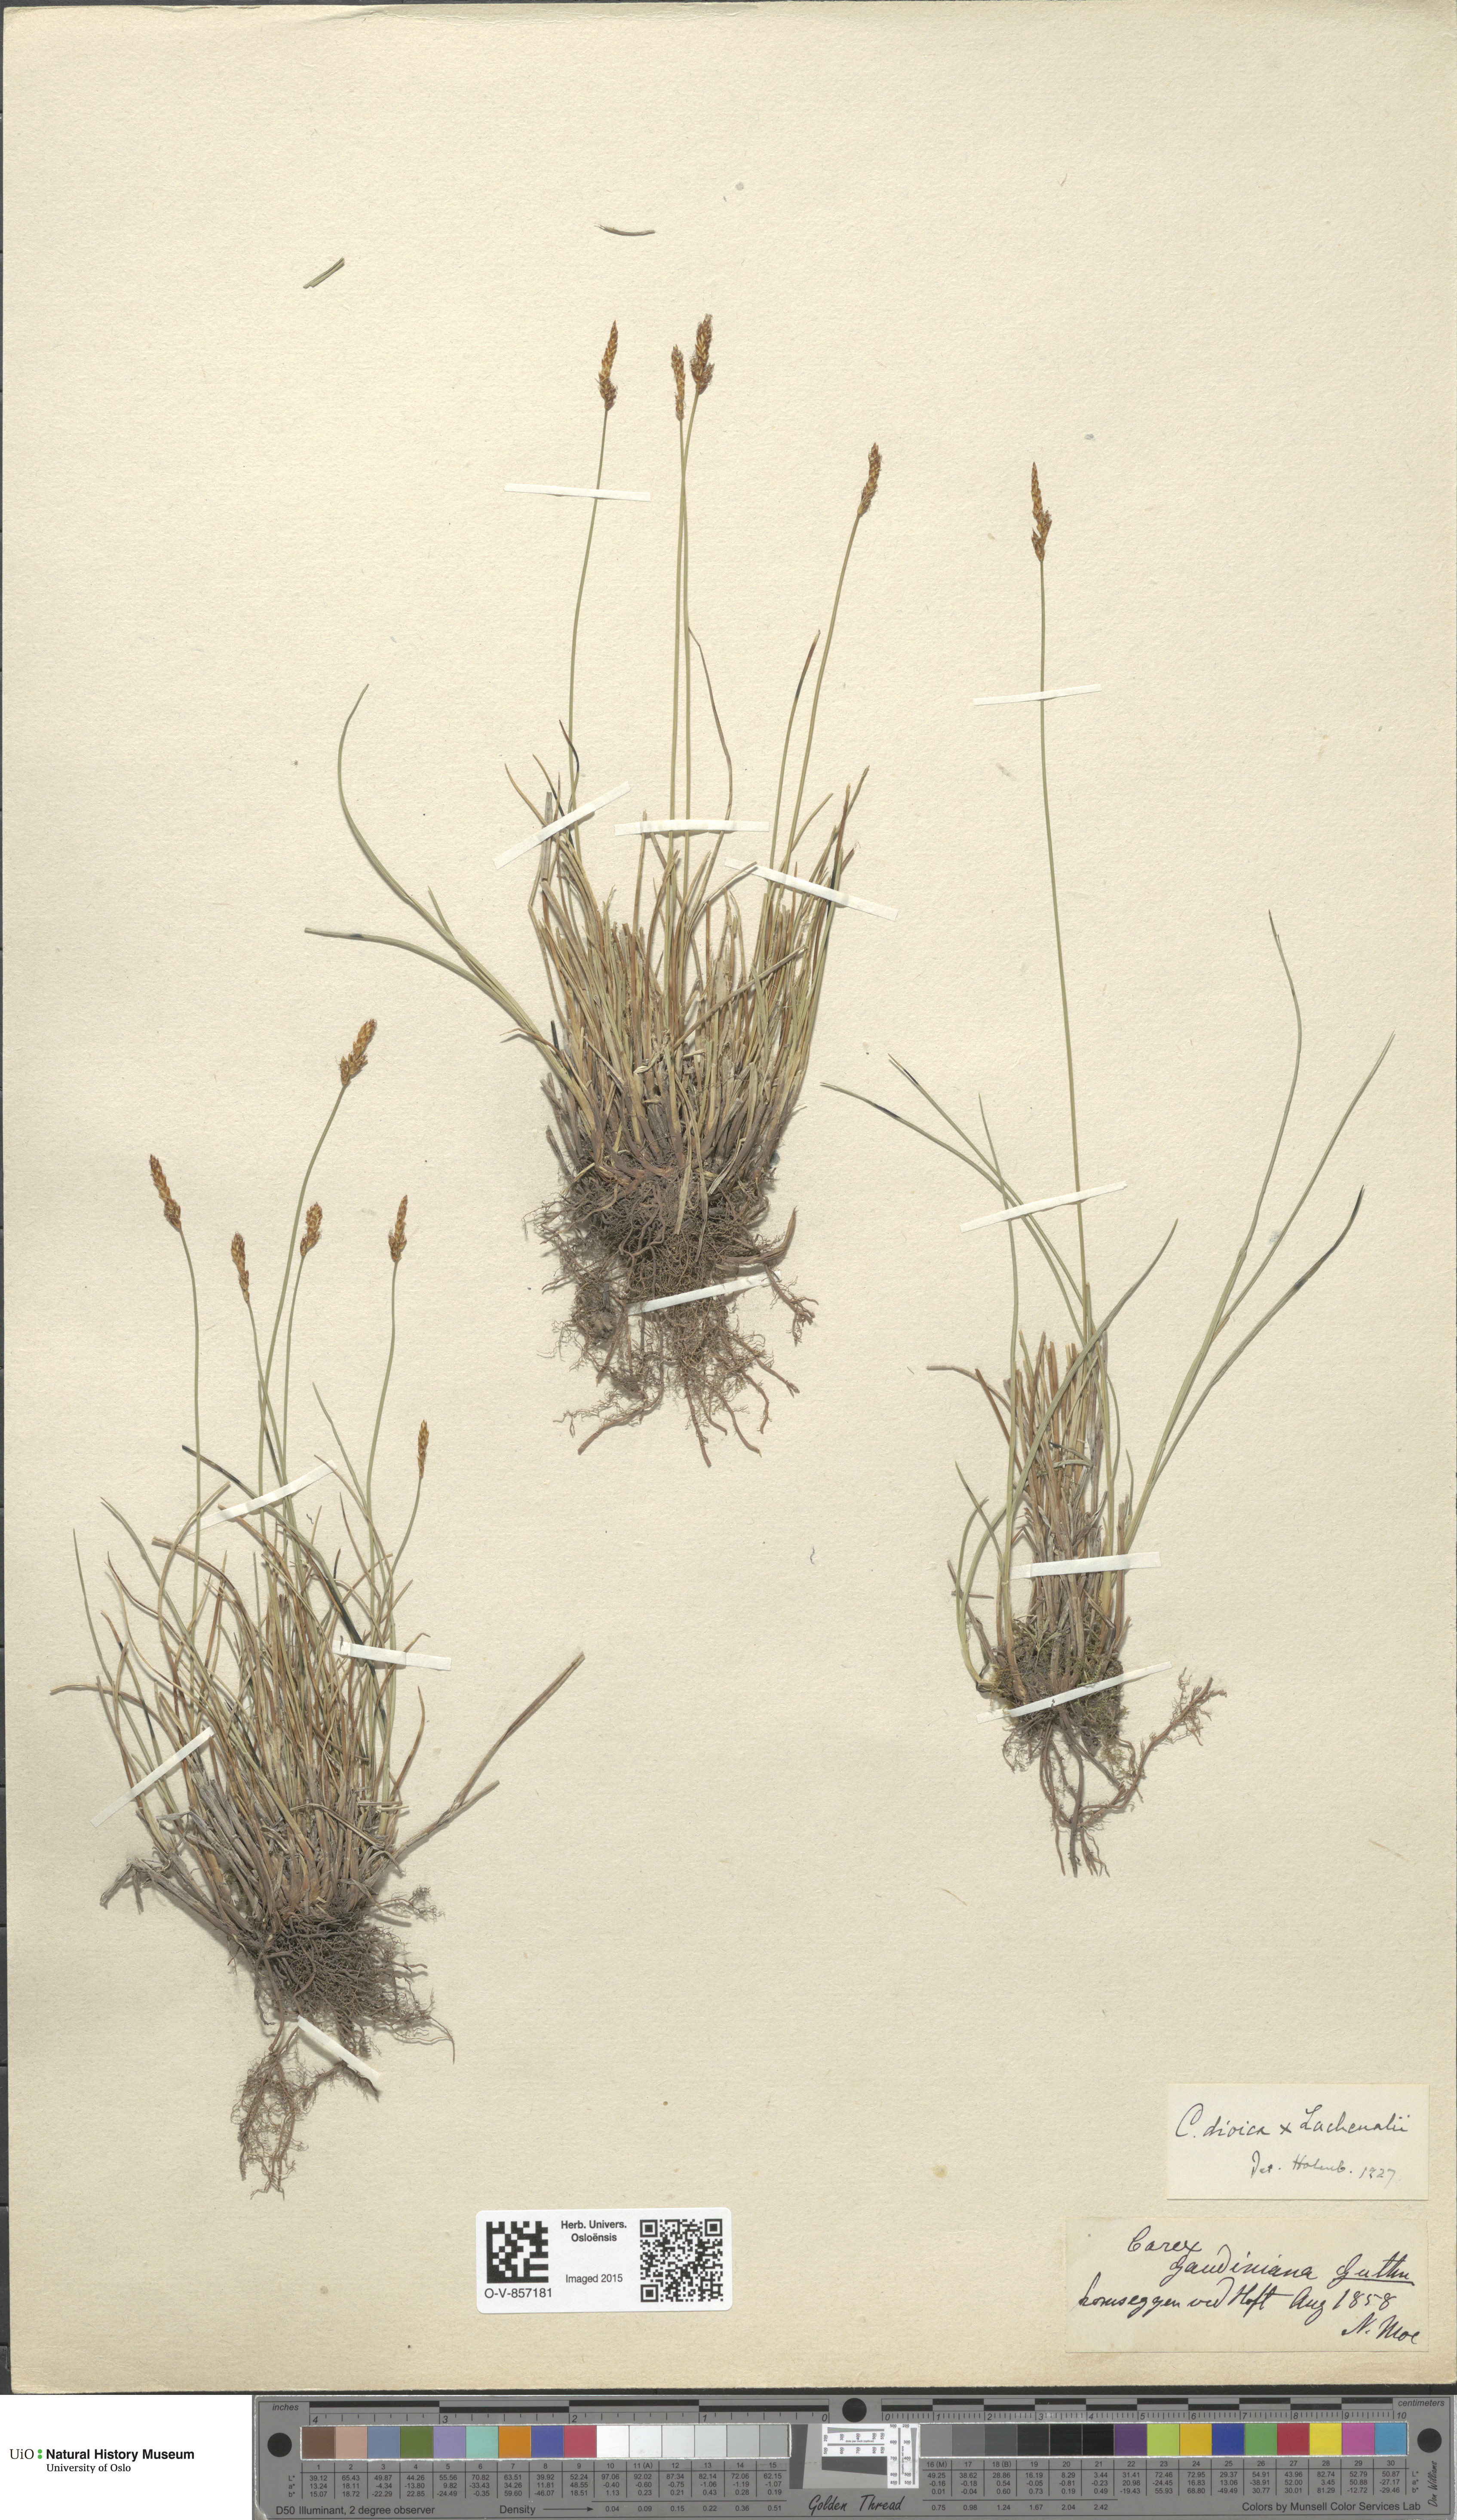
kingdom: Plantae
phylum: Tracheophyta
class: Liliopsida
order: Poales
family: Cyperaceae
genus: Carex
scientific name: Carex
